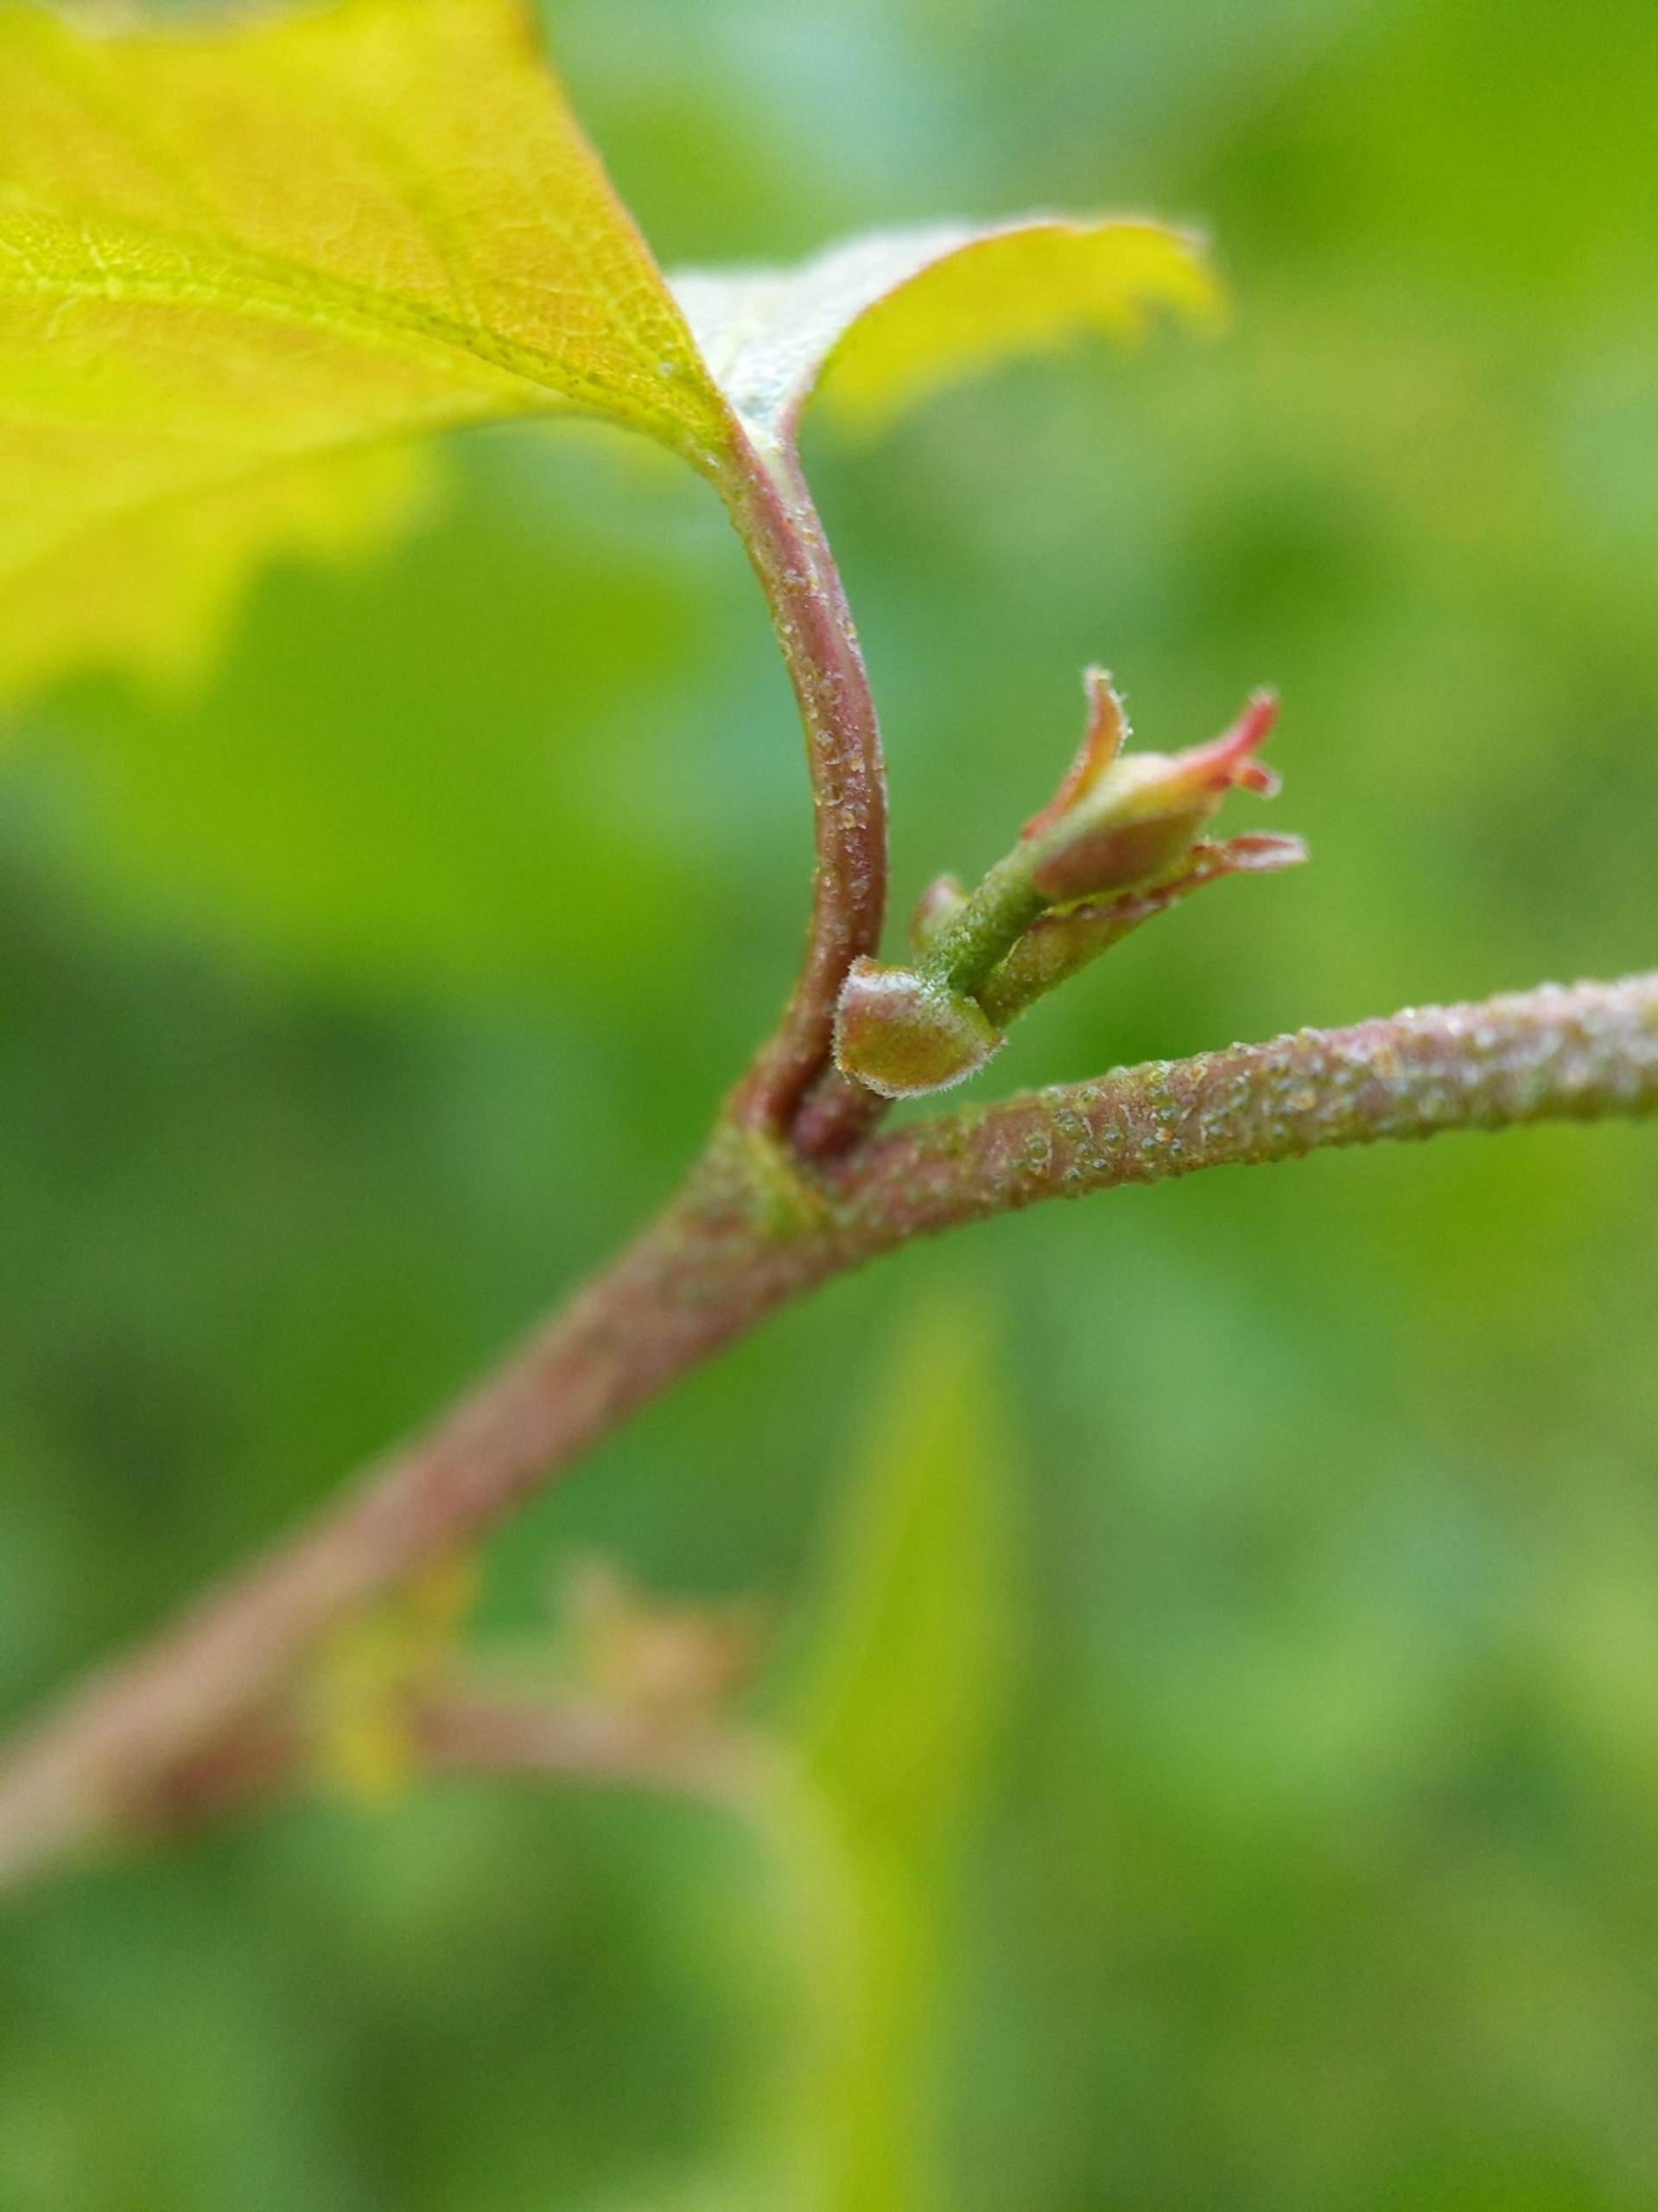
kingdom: Plantae
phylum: Tracheophyta
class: Magnoliopsida
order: Fagales
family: Betulaceae
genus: Betula
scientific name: Betula pendula
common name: Vorte-birk
